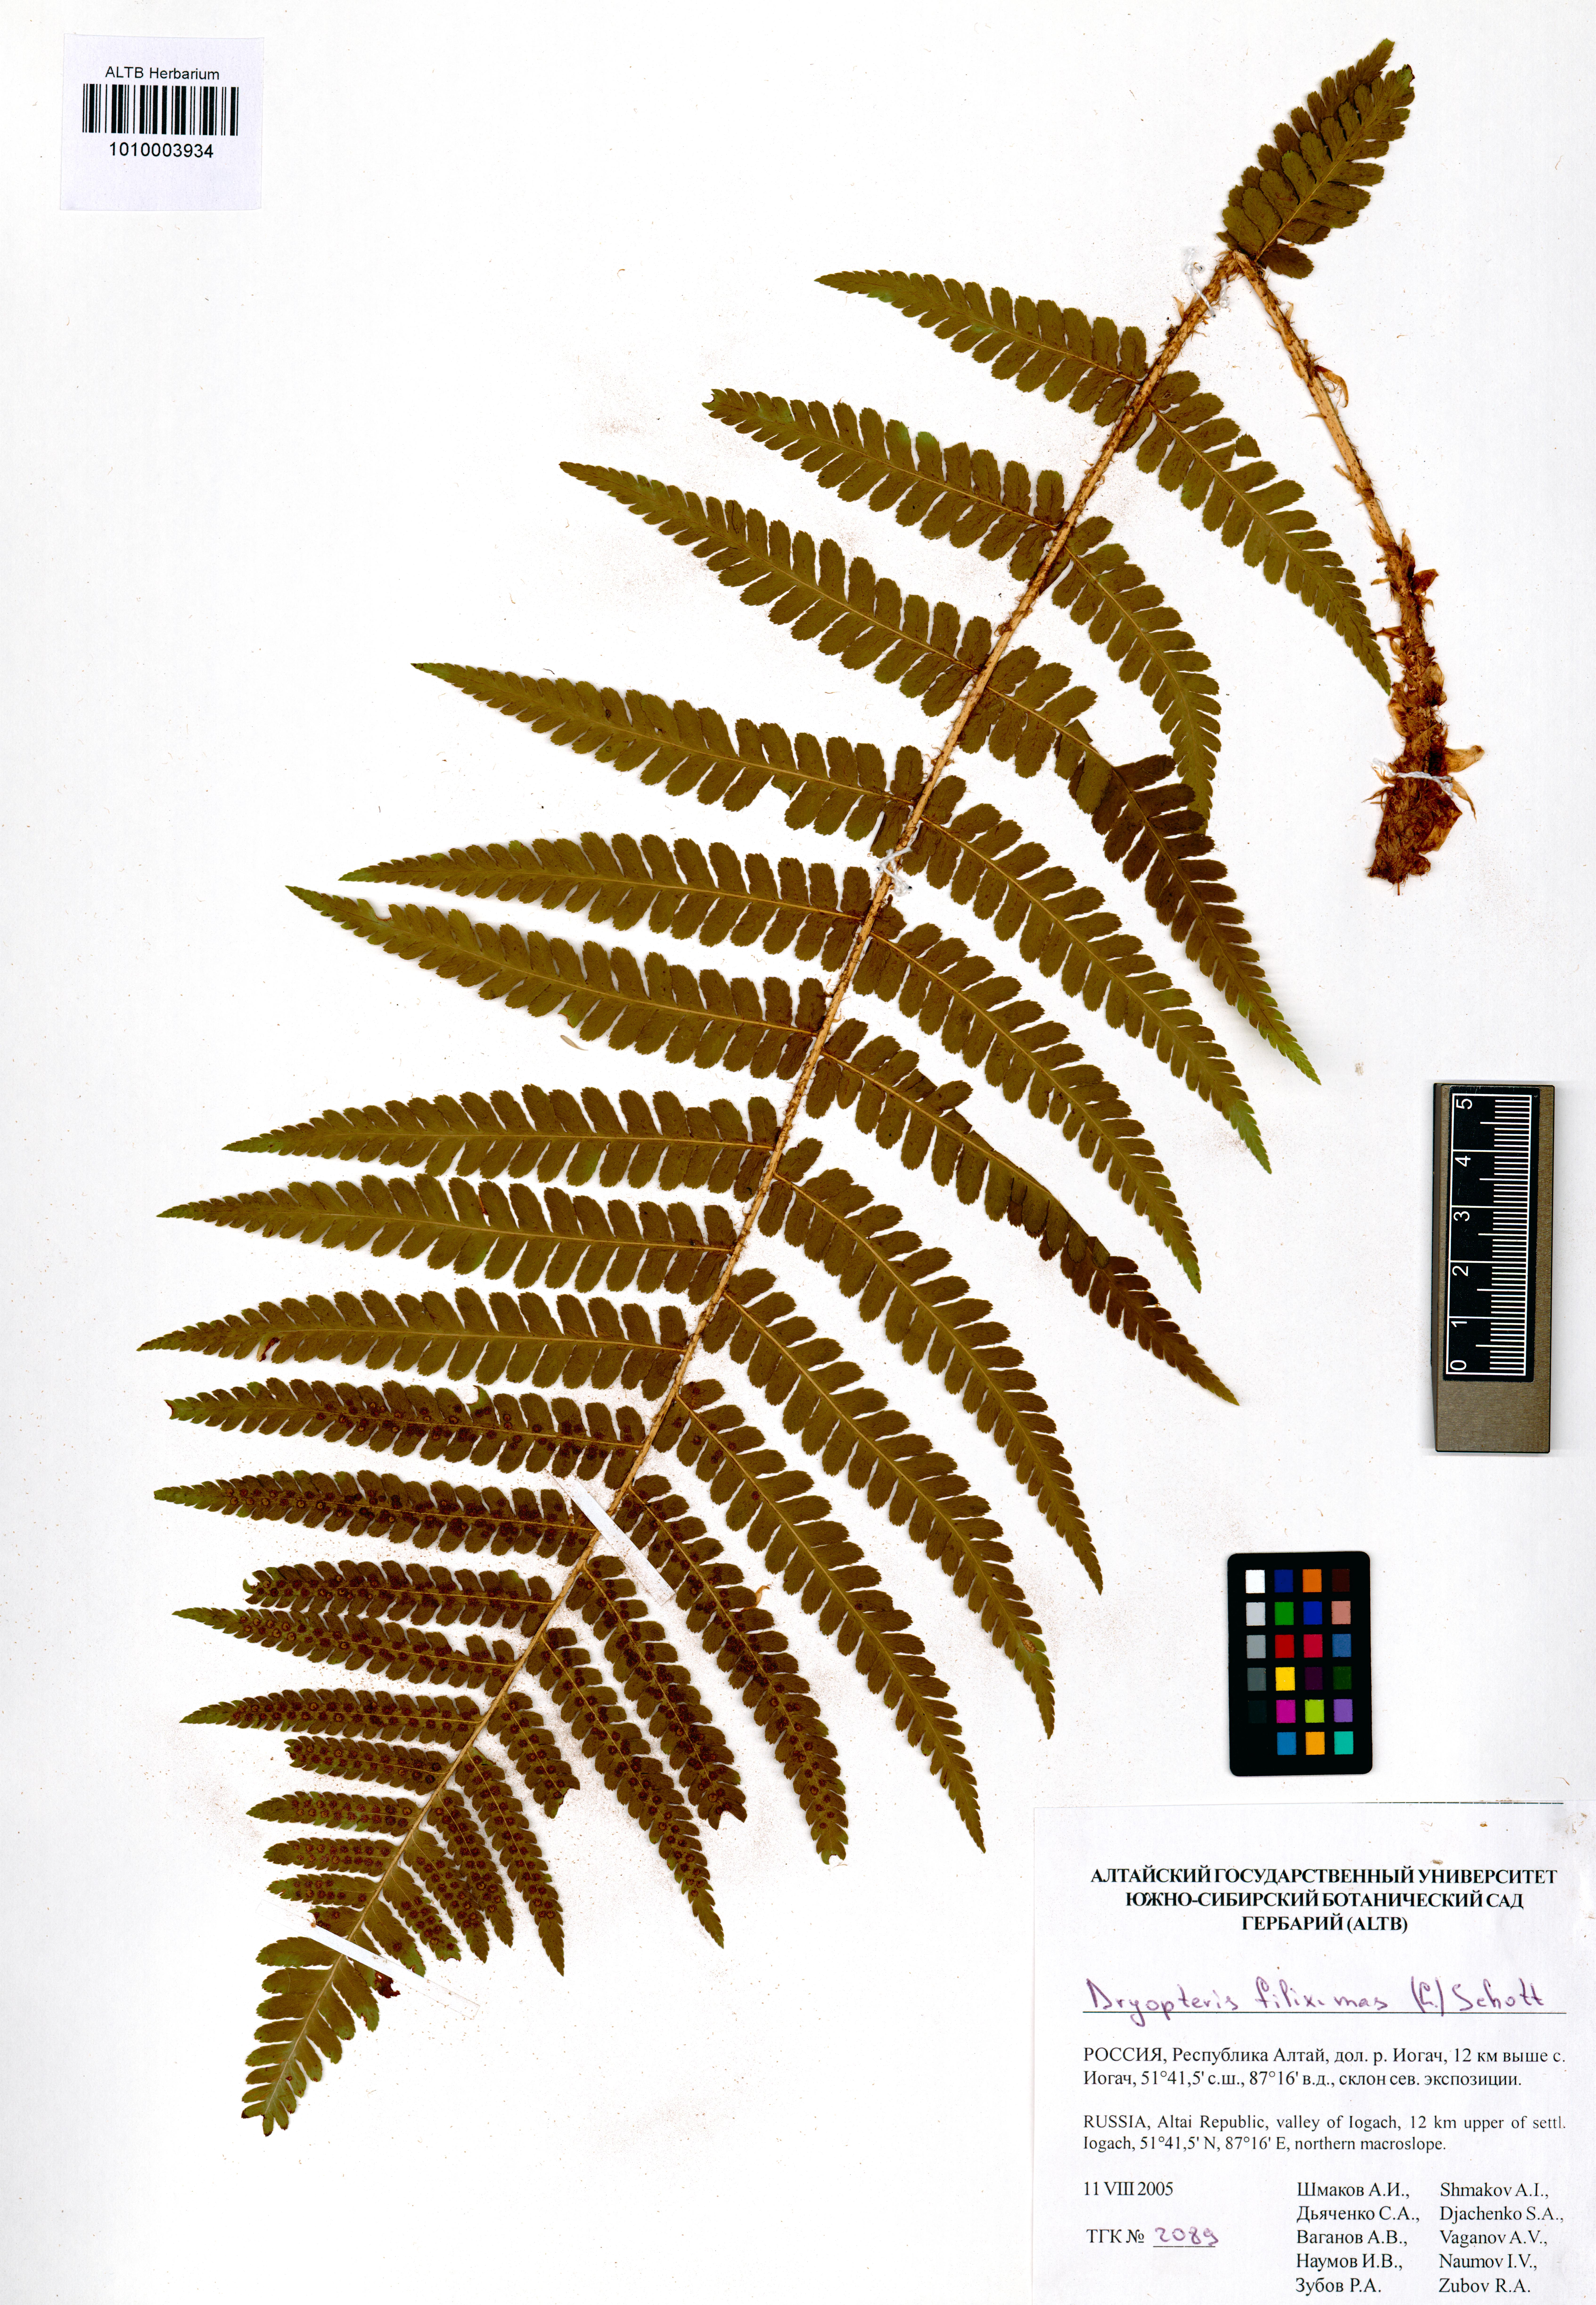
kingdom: Plantae
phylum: Tracheophyta
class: Polypodiopsida
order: Polypodiales
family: Dryopteridaceae
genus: Dryopteris
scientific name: Dryopteris filix-mas
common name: Male fern
